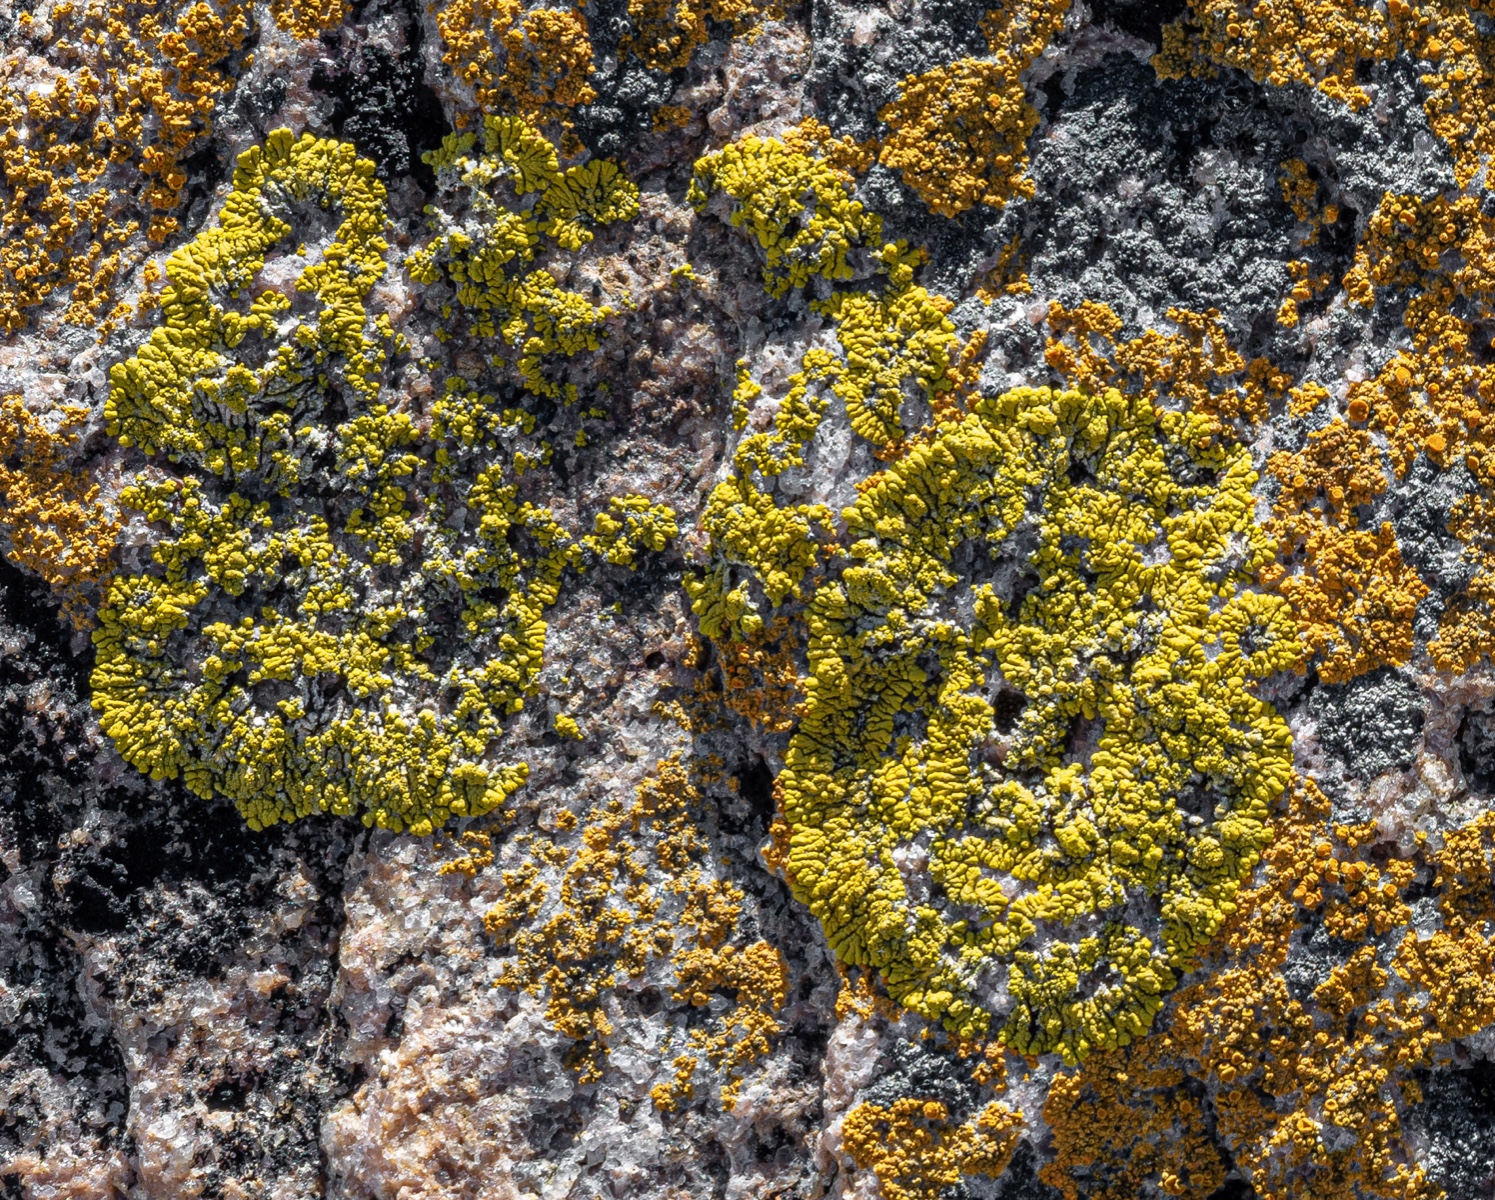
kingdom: Fungi
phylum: Ascomycota
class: Lecanoromycetes
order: Teloschistales
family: Teloschistaceae
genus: Verrucoplaca
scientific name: Verrucoplaca verruculifera
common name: koldkyst-orangelav
